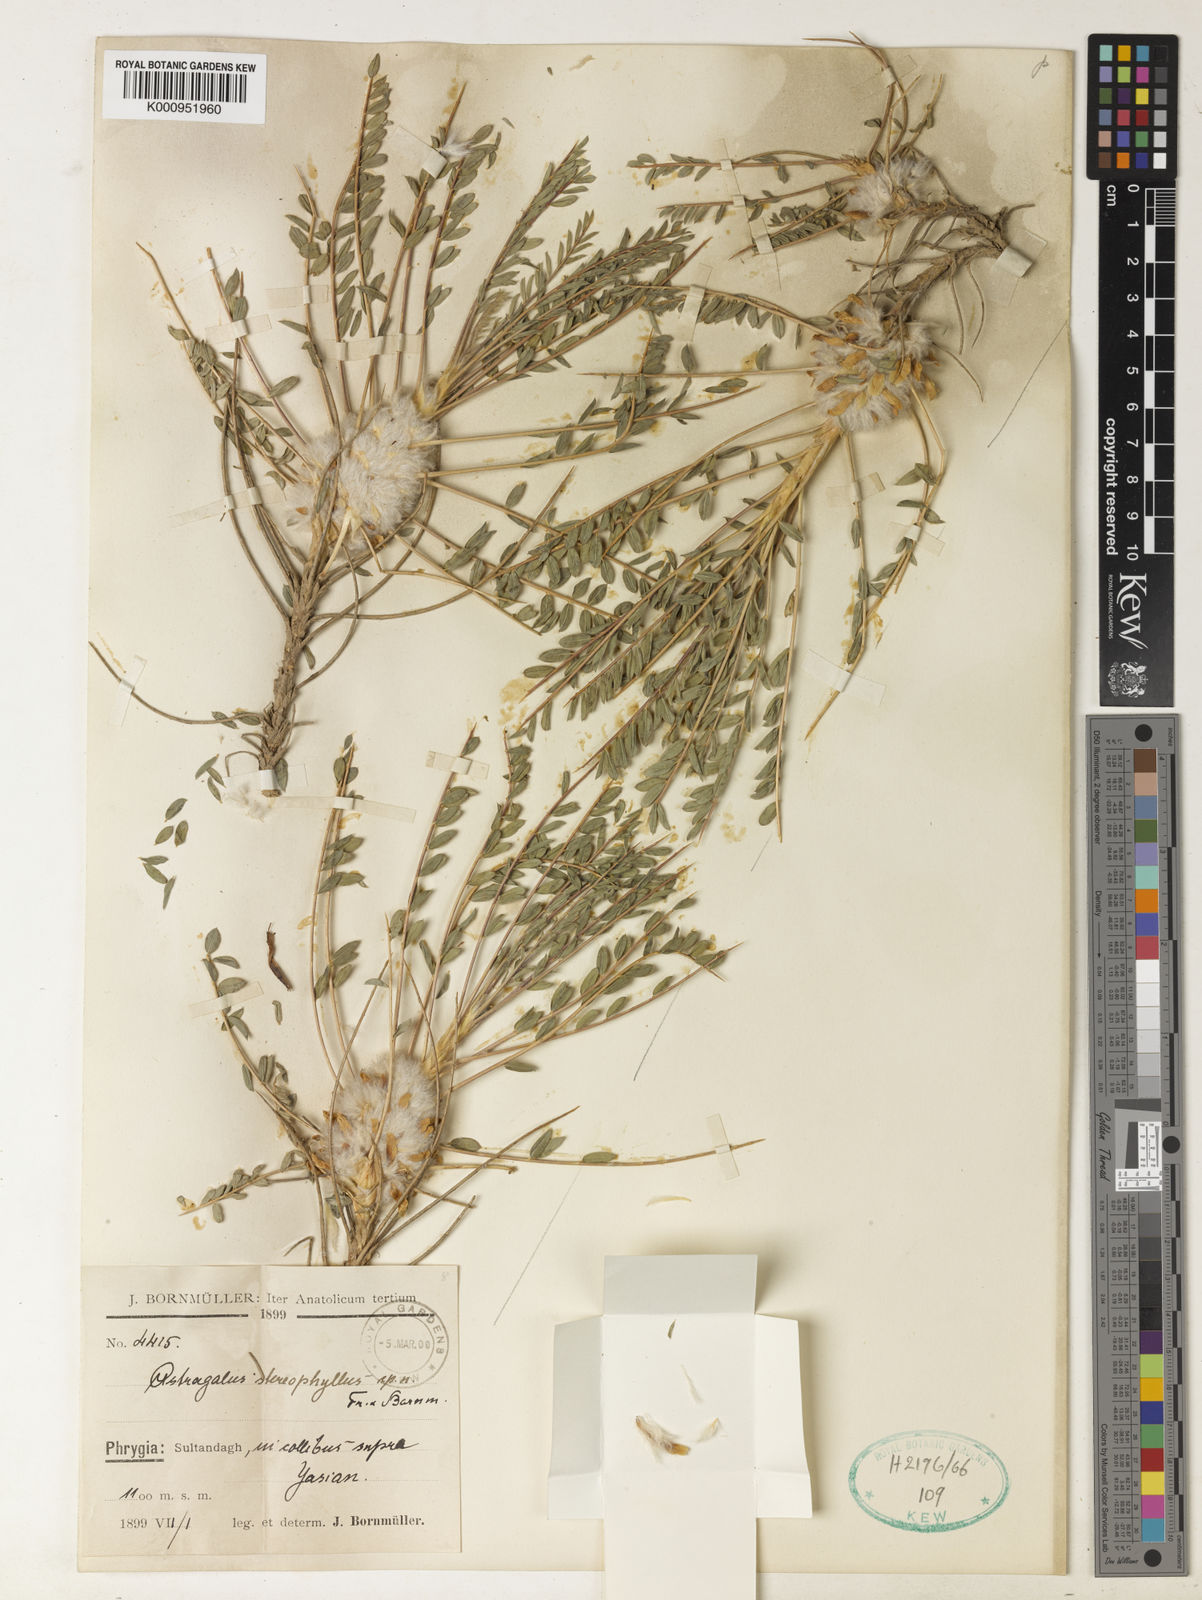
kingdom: Plantae
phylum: Tracheophyta
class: Magnoliopsida
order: Fabales
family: Fabaceae
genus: Astragalus
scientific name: Astragalus
